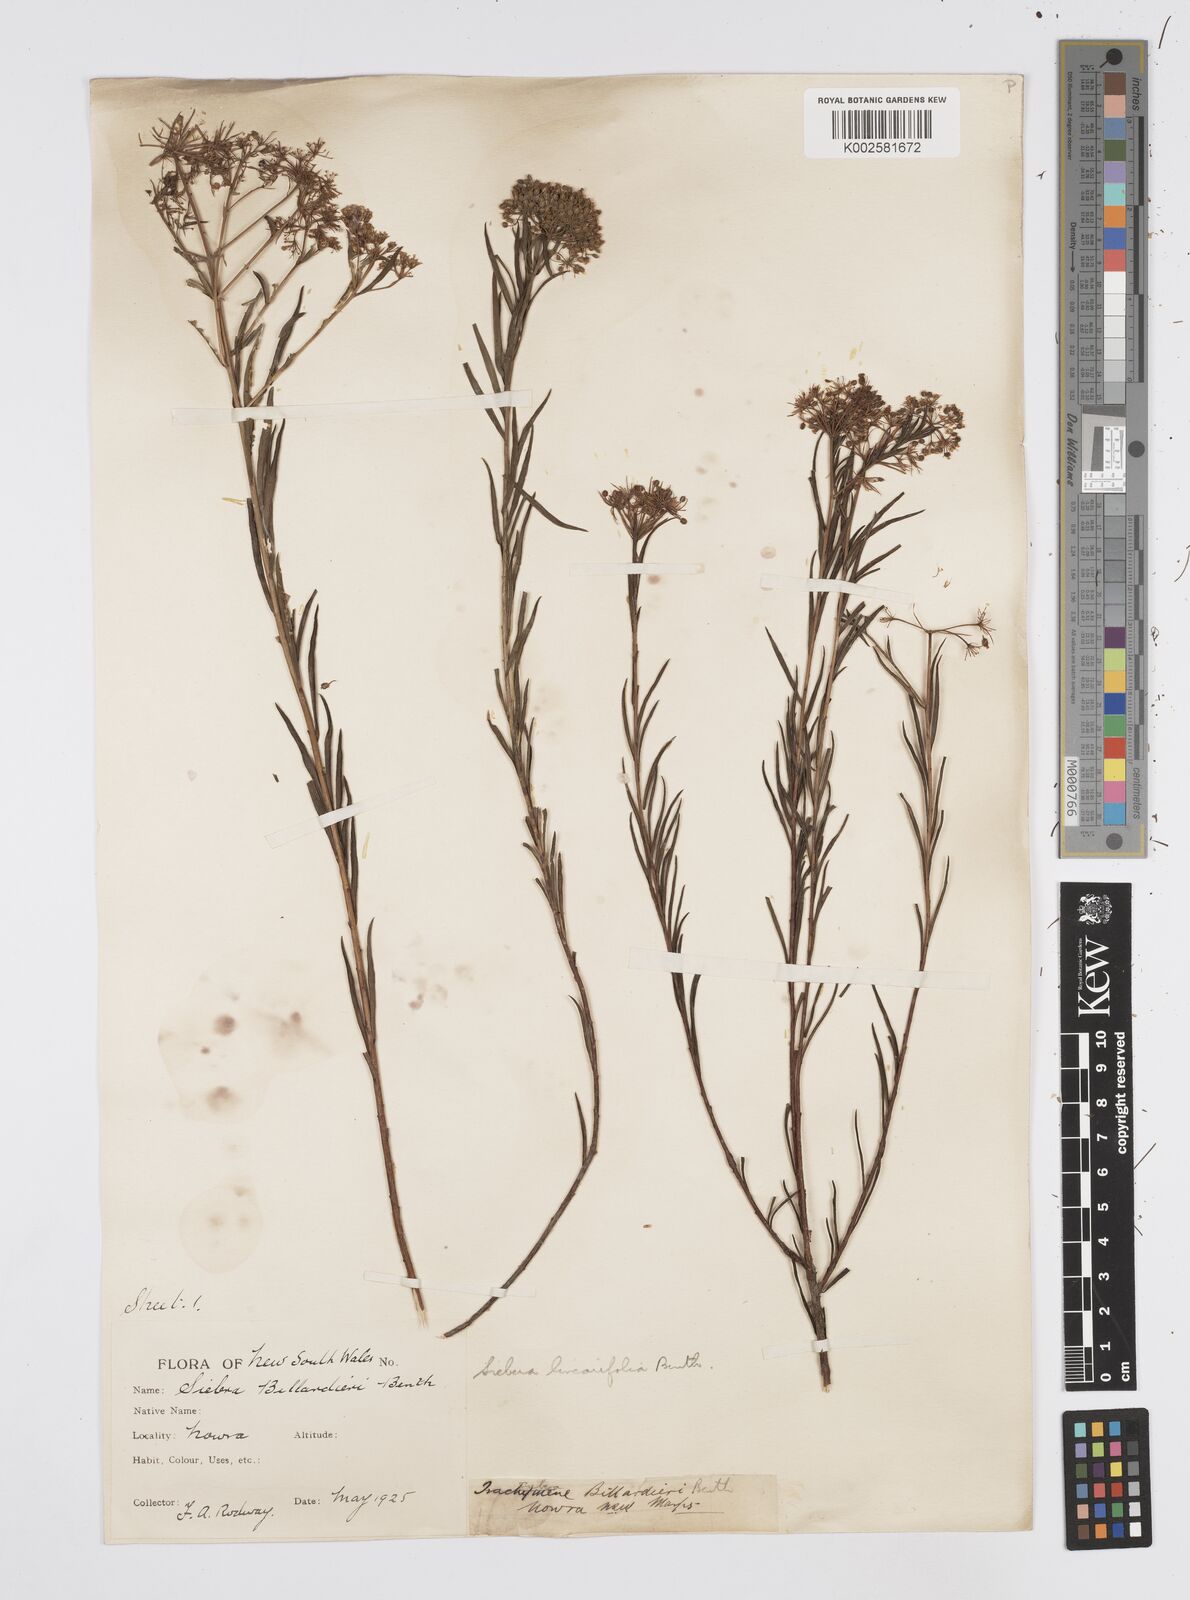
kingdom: Plantae
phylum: Tracheophyta
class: Magnoliopsida
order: Apiales
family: Apiaceae
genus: Platysace
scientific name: Platysace linearifolia
